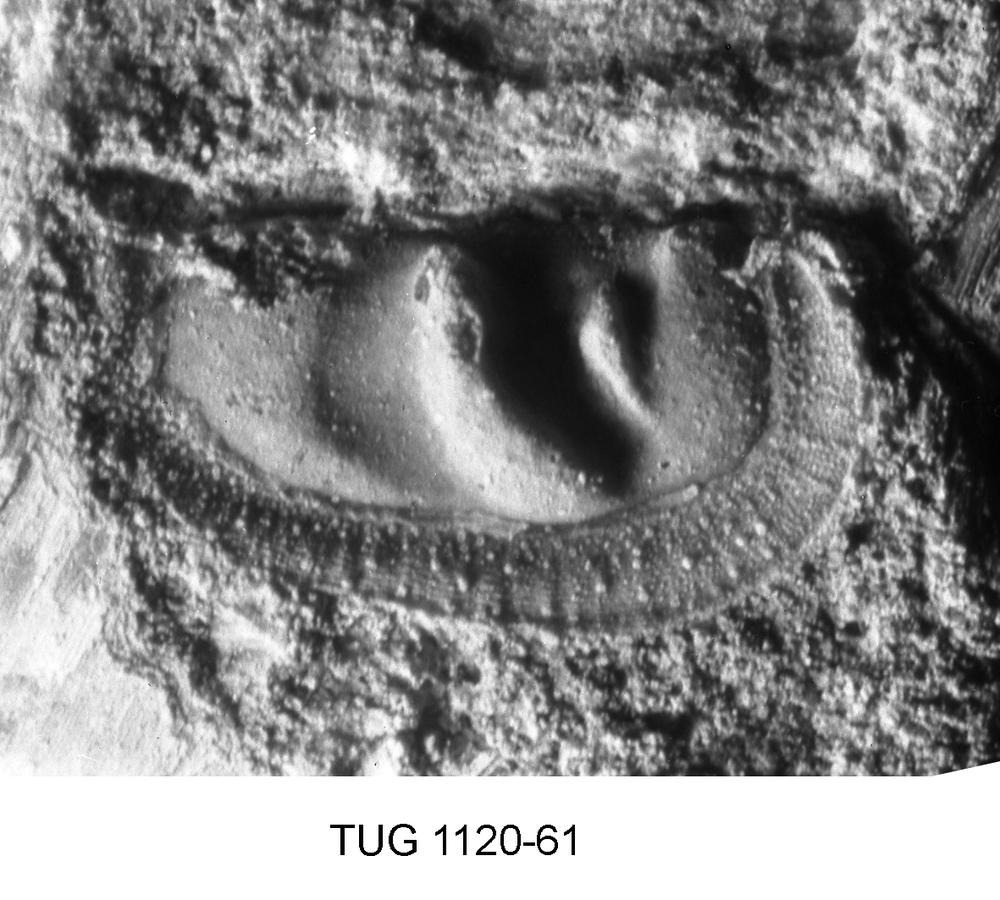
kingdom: Animalia
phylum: Arthropoda
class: Ostracoda
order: Palaeocopida
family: Tetradellidae
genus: Tetradella
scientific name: Tetradella
